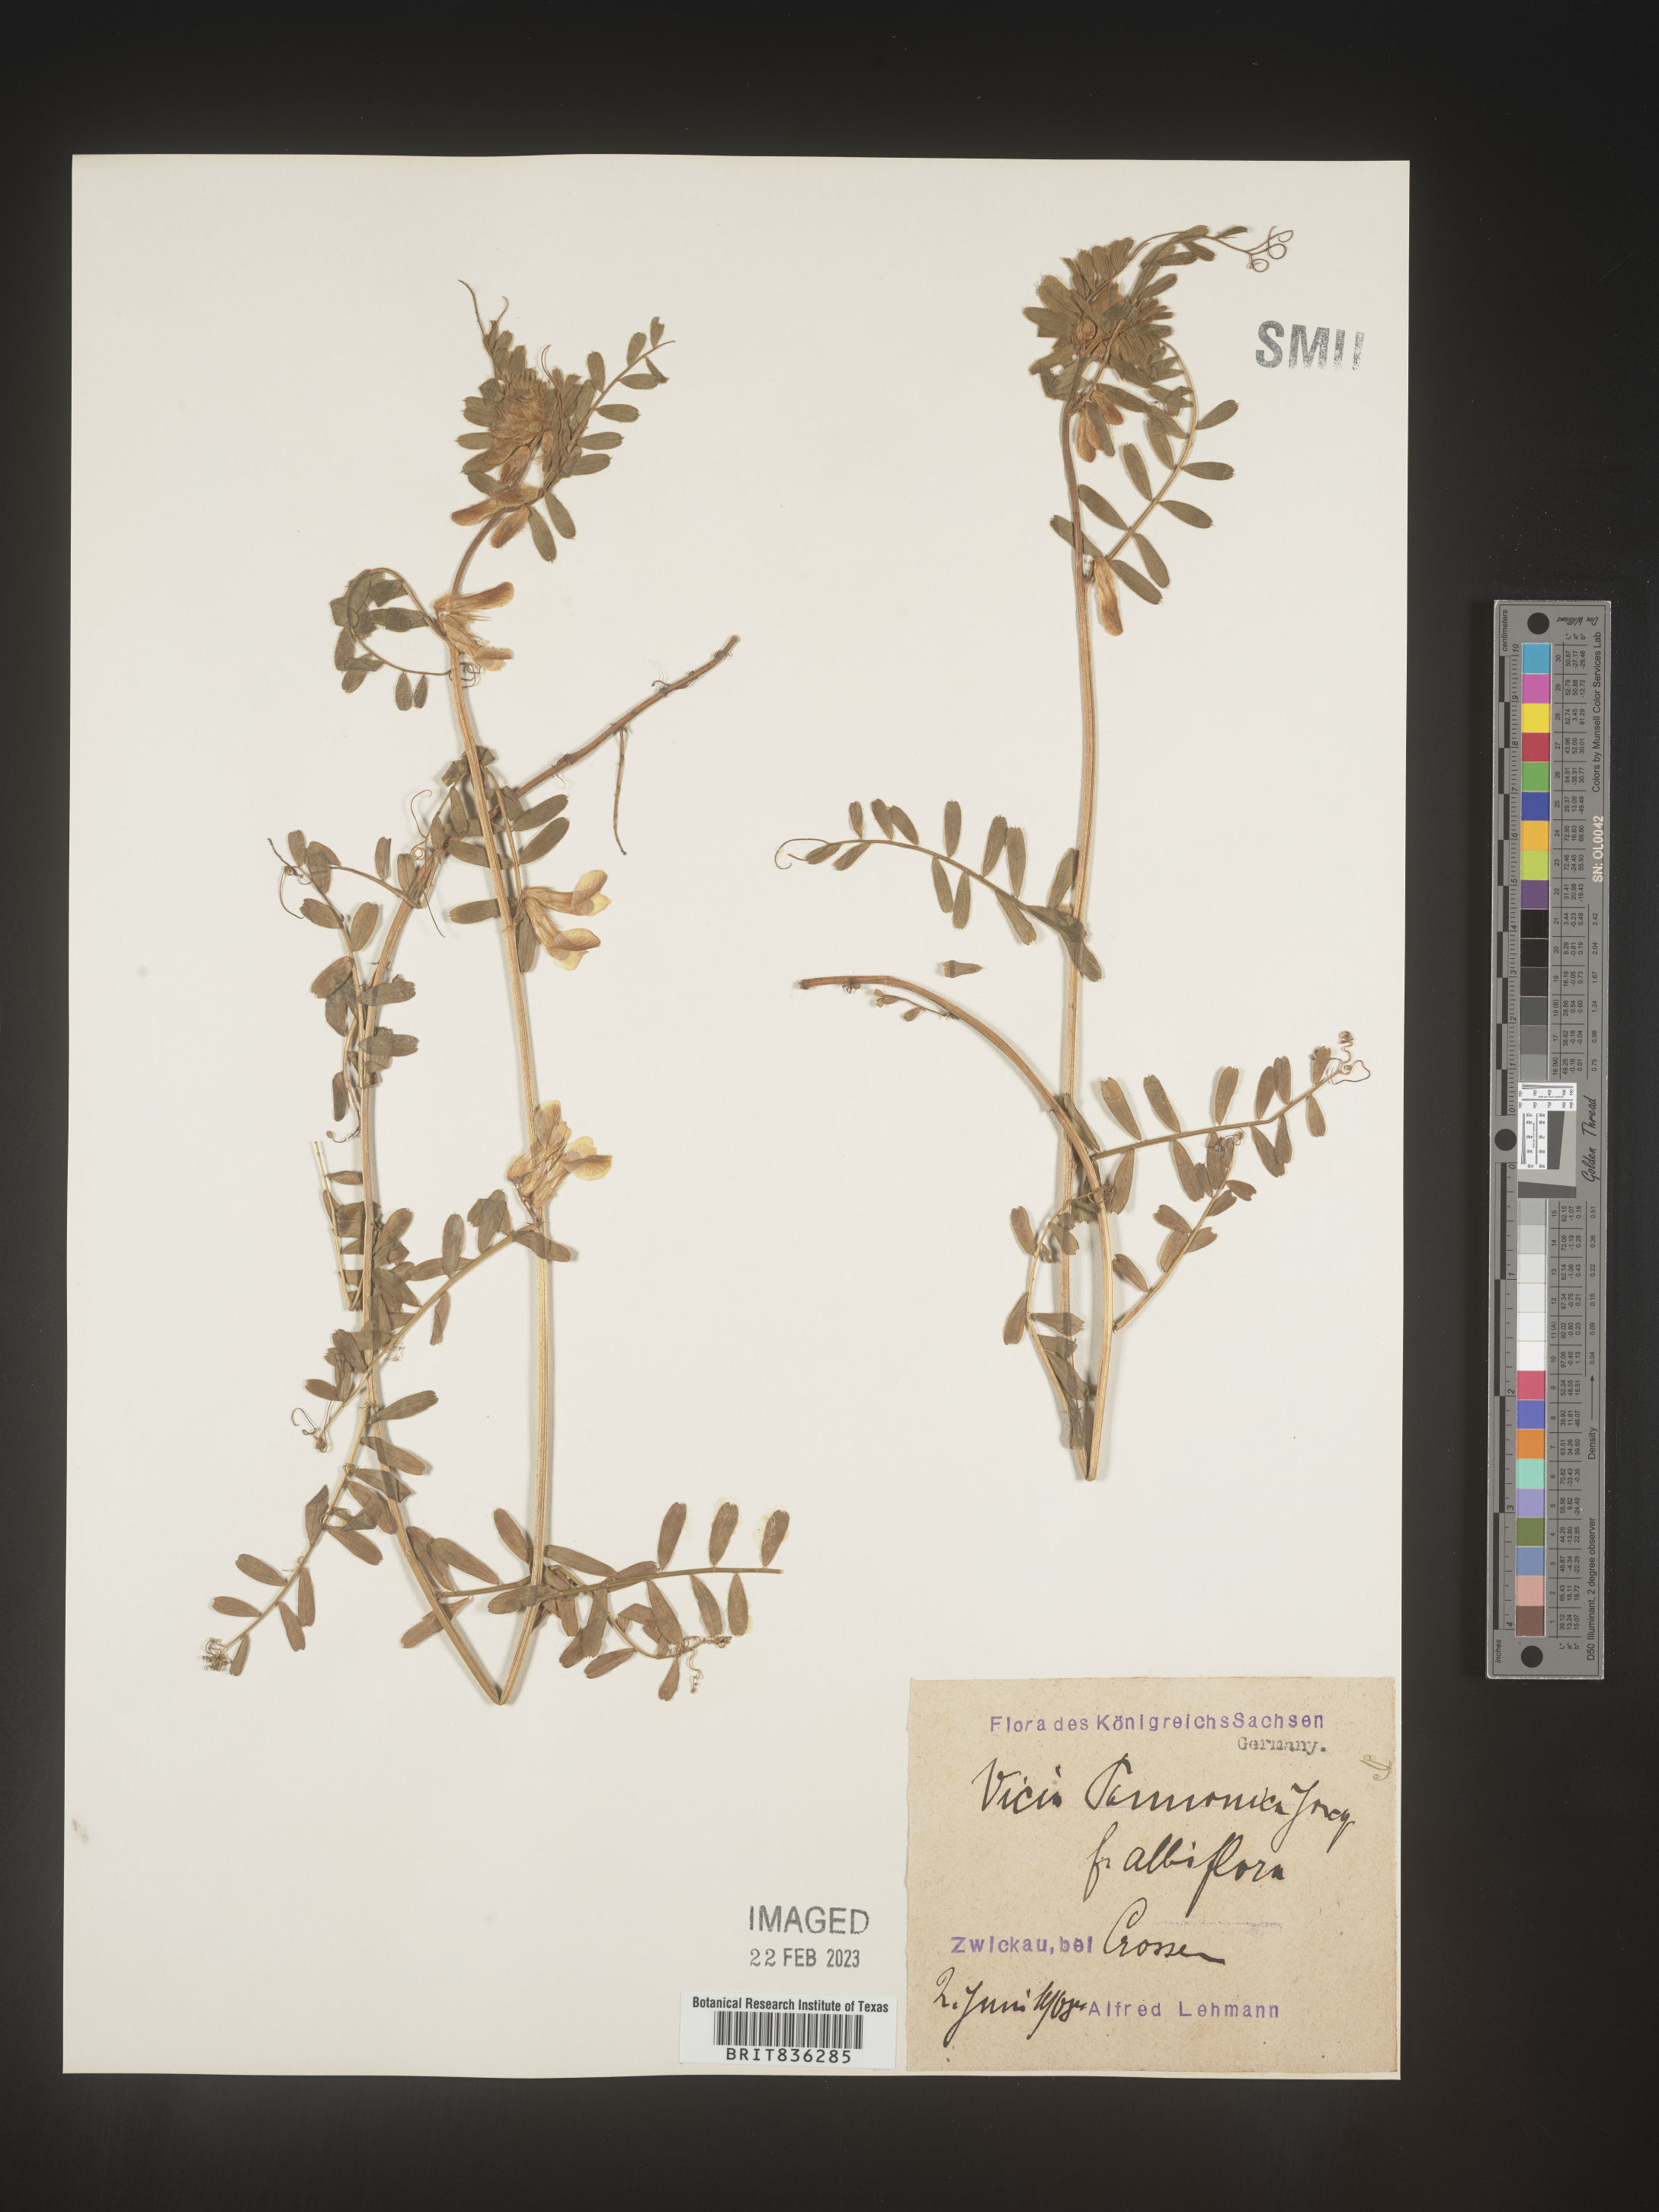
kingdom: Plantae
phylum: Tracheophyta
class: Magnoliopsida
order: Fabales
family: Fabaceae
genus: Vicia
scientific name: Vicia
